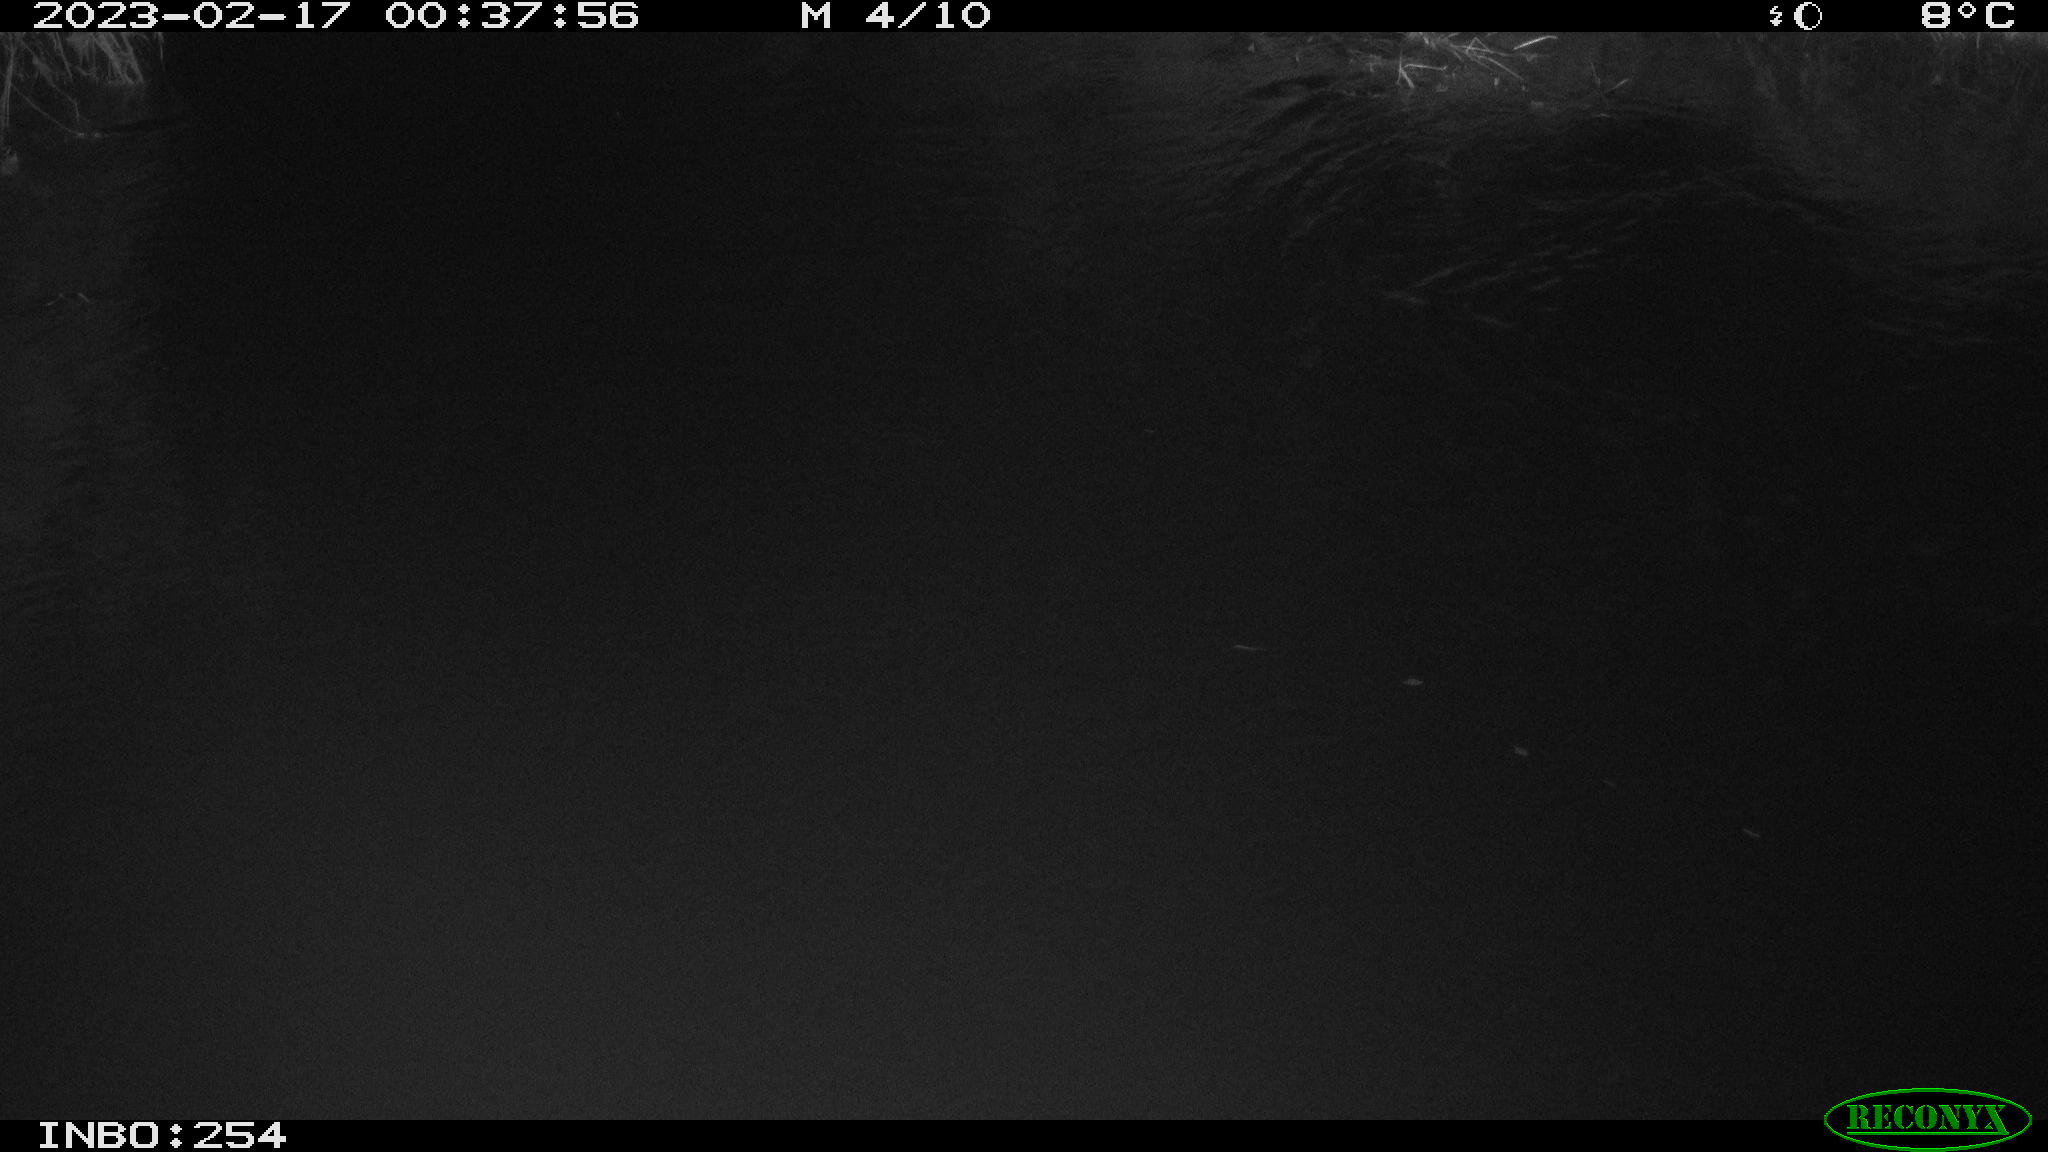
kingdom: Animalia
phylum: Chordata
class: Aves
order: Anseriformes
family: Anatidae
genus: Anas
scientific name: Anas
